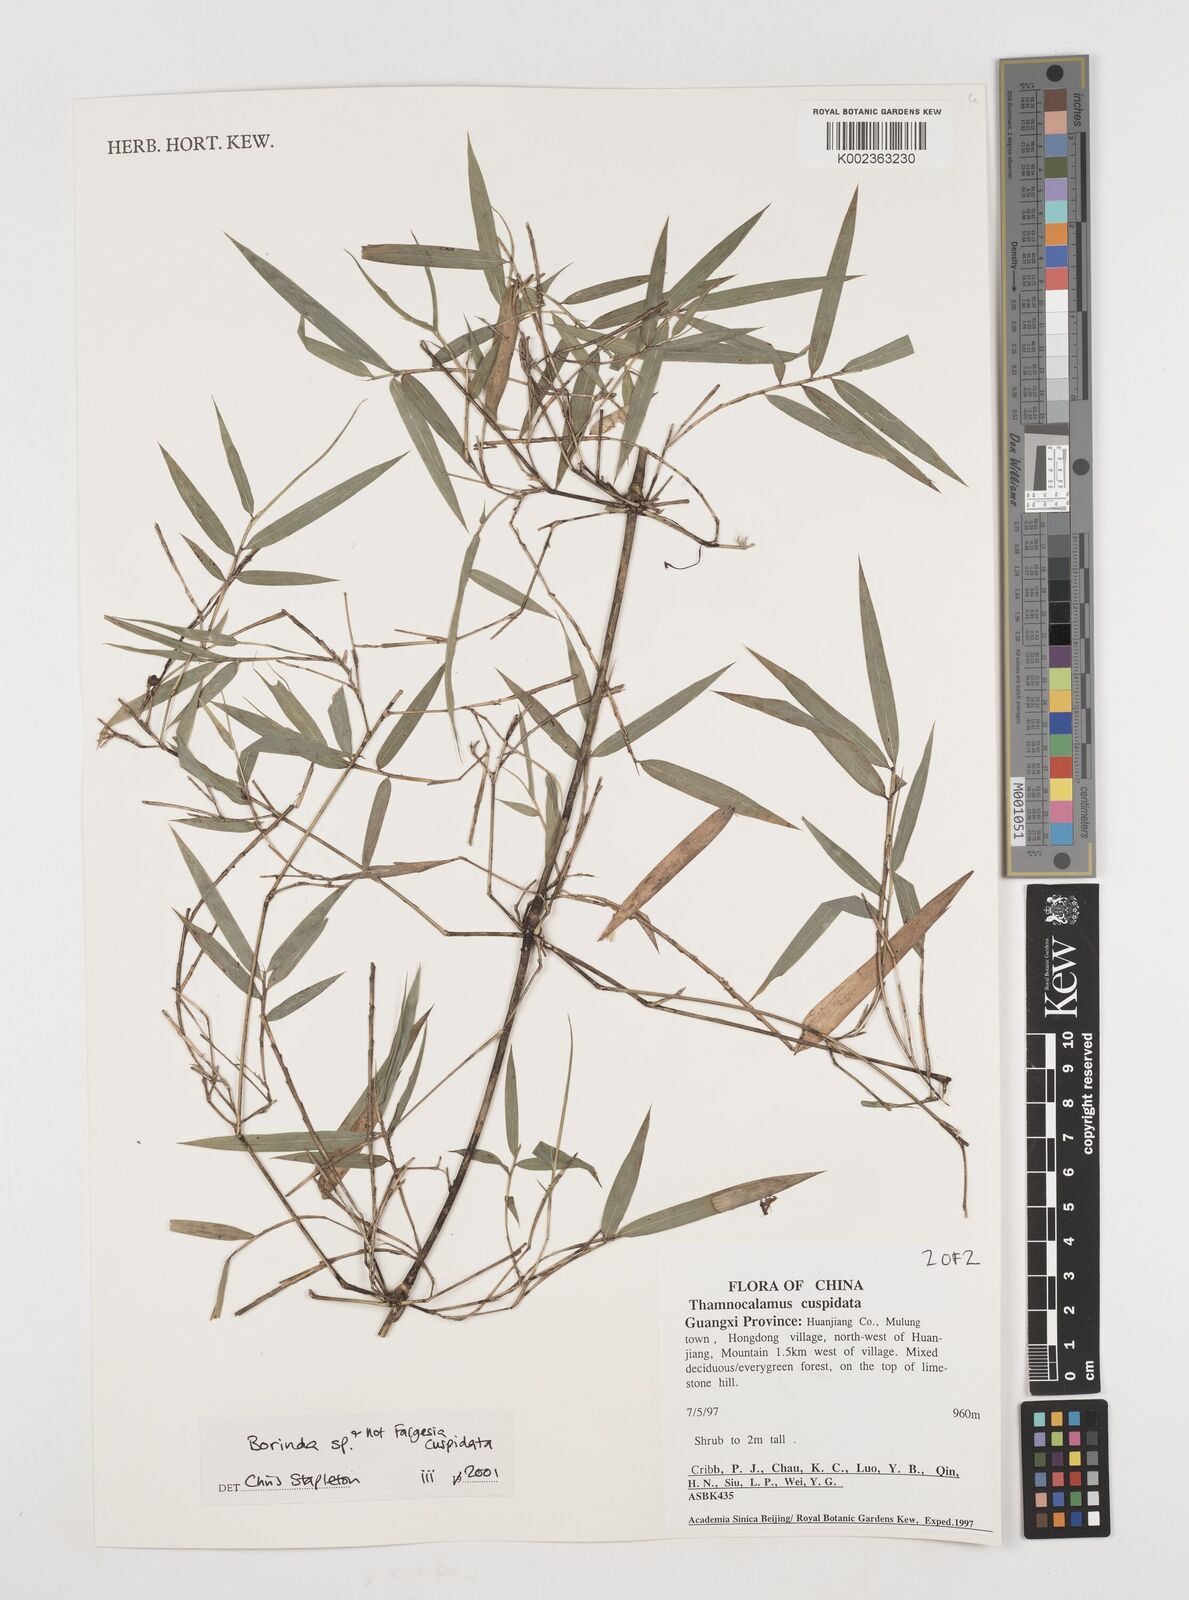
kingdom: Plantae
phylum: Tracheophyta
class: Liliopsida
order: Poales
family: Poaceae
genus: Fargesia
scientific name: Fargesia
